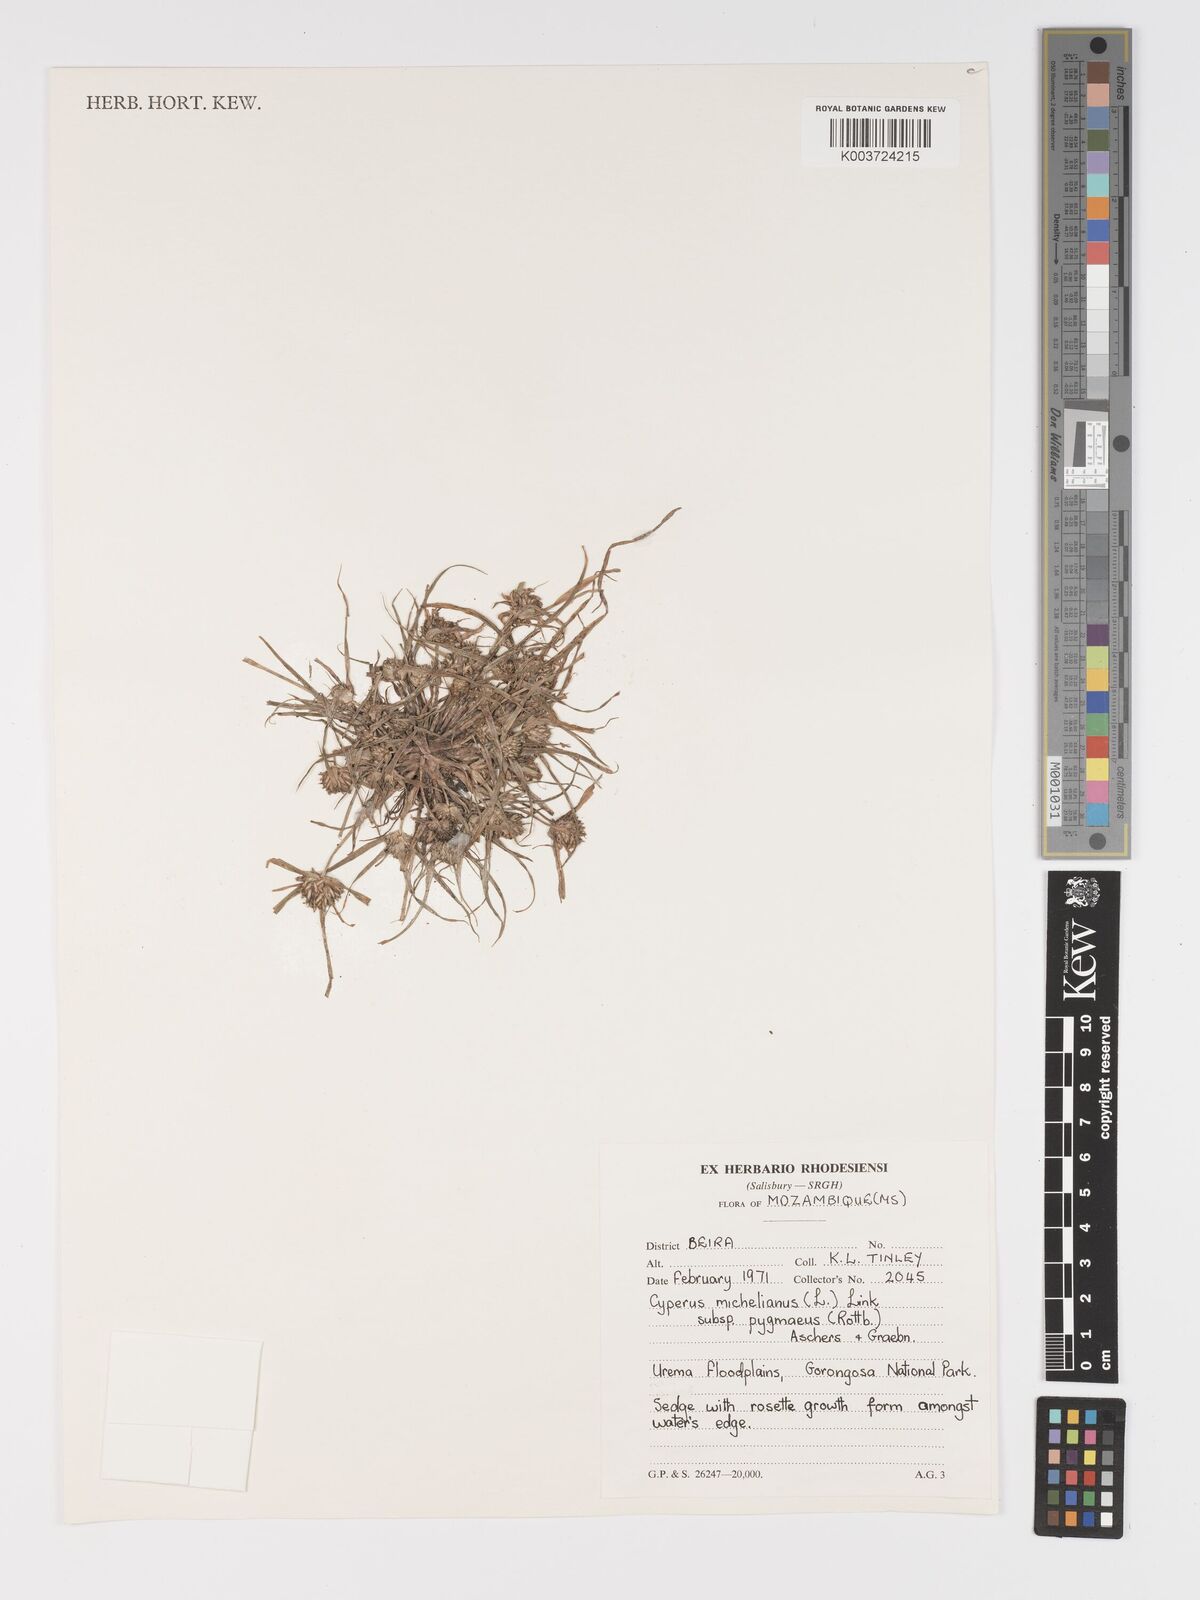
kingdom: Plantae
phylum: Tracheophyta
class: Liliopsida
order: Poales
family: Cyperaceae
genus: Cyperus
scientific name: Cyperus michelianus
